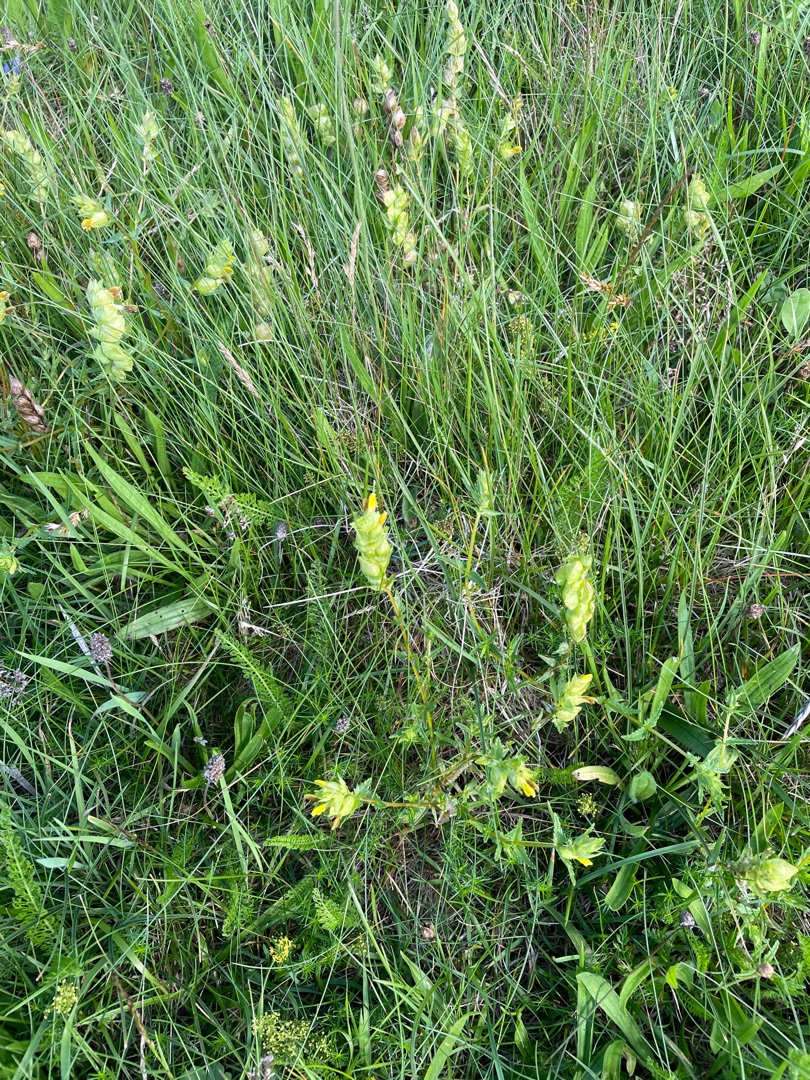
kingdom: Plantae
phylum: Tracheophyta
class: Magnoliopsida
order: Lamiales
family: Orobanchaceae
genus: Rhinanthus
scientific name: Rhinanthus
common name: Skjallerslægten
